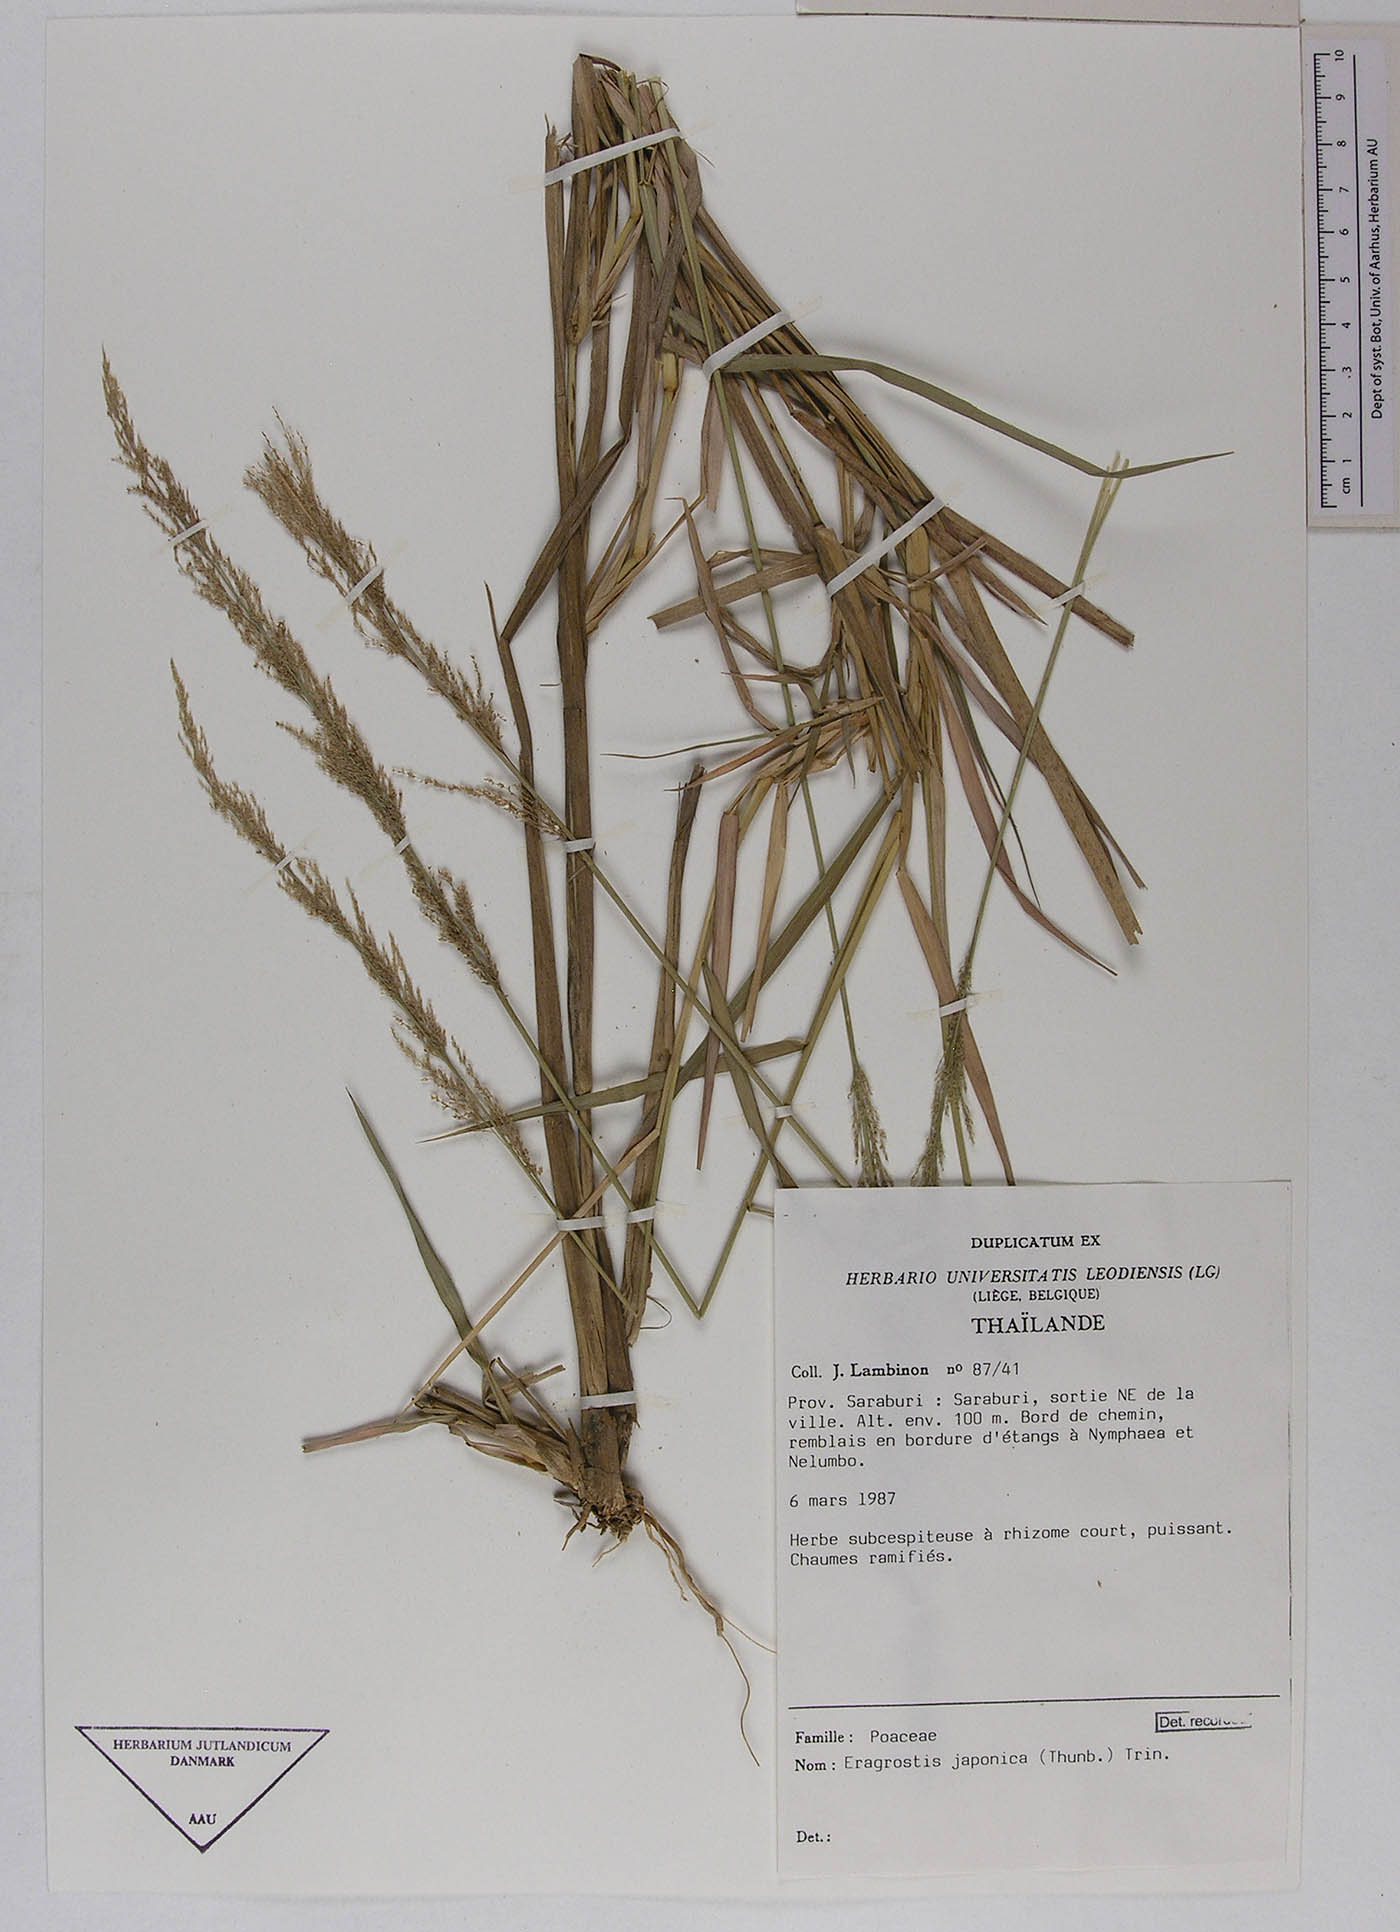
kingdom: Plantae
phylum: Tracheophyta
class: Liliopsida
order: Poales
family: Poaceae
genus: Eragrostis
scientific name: Eragrostis japonica
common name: Pond lovegrass
